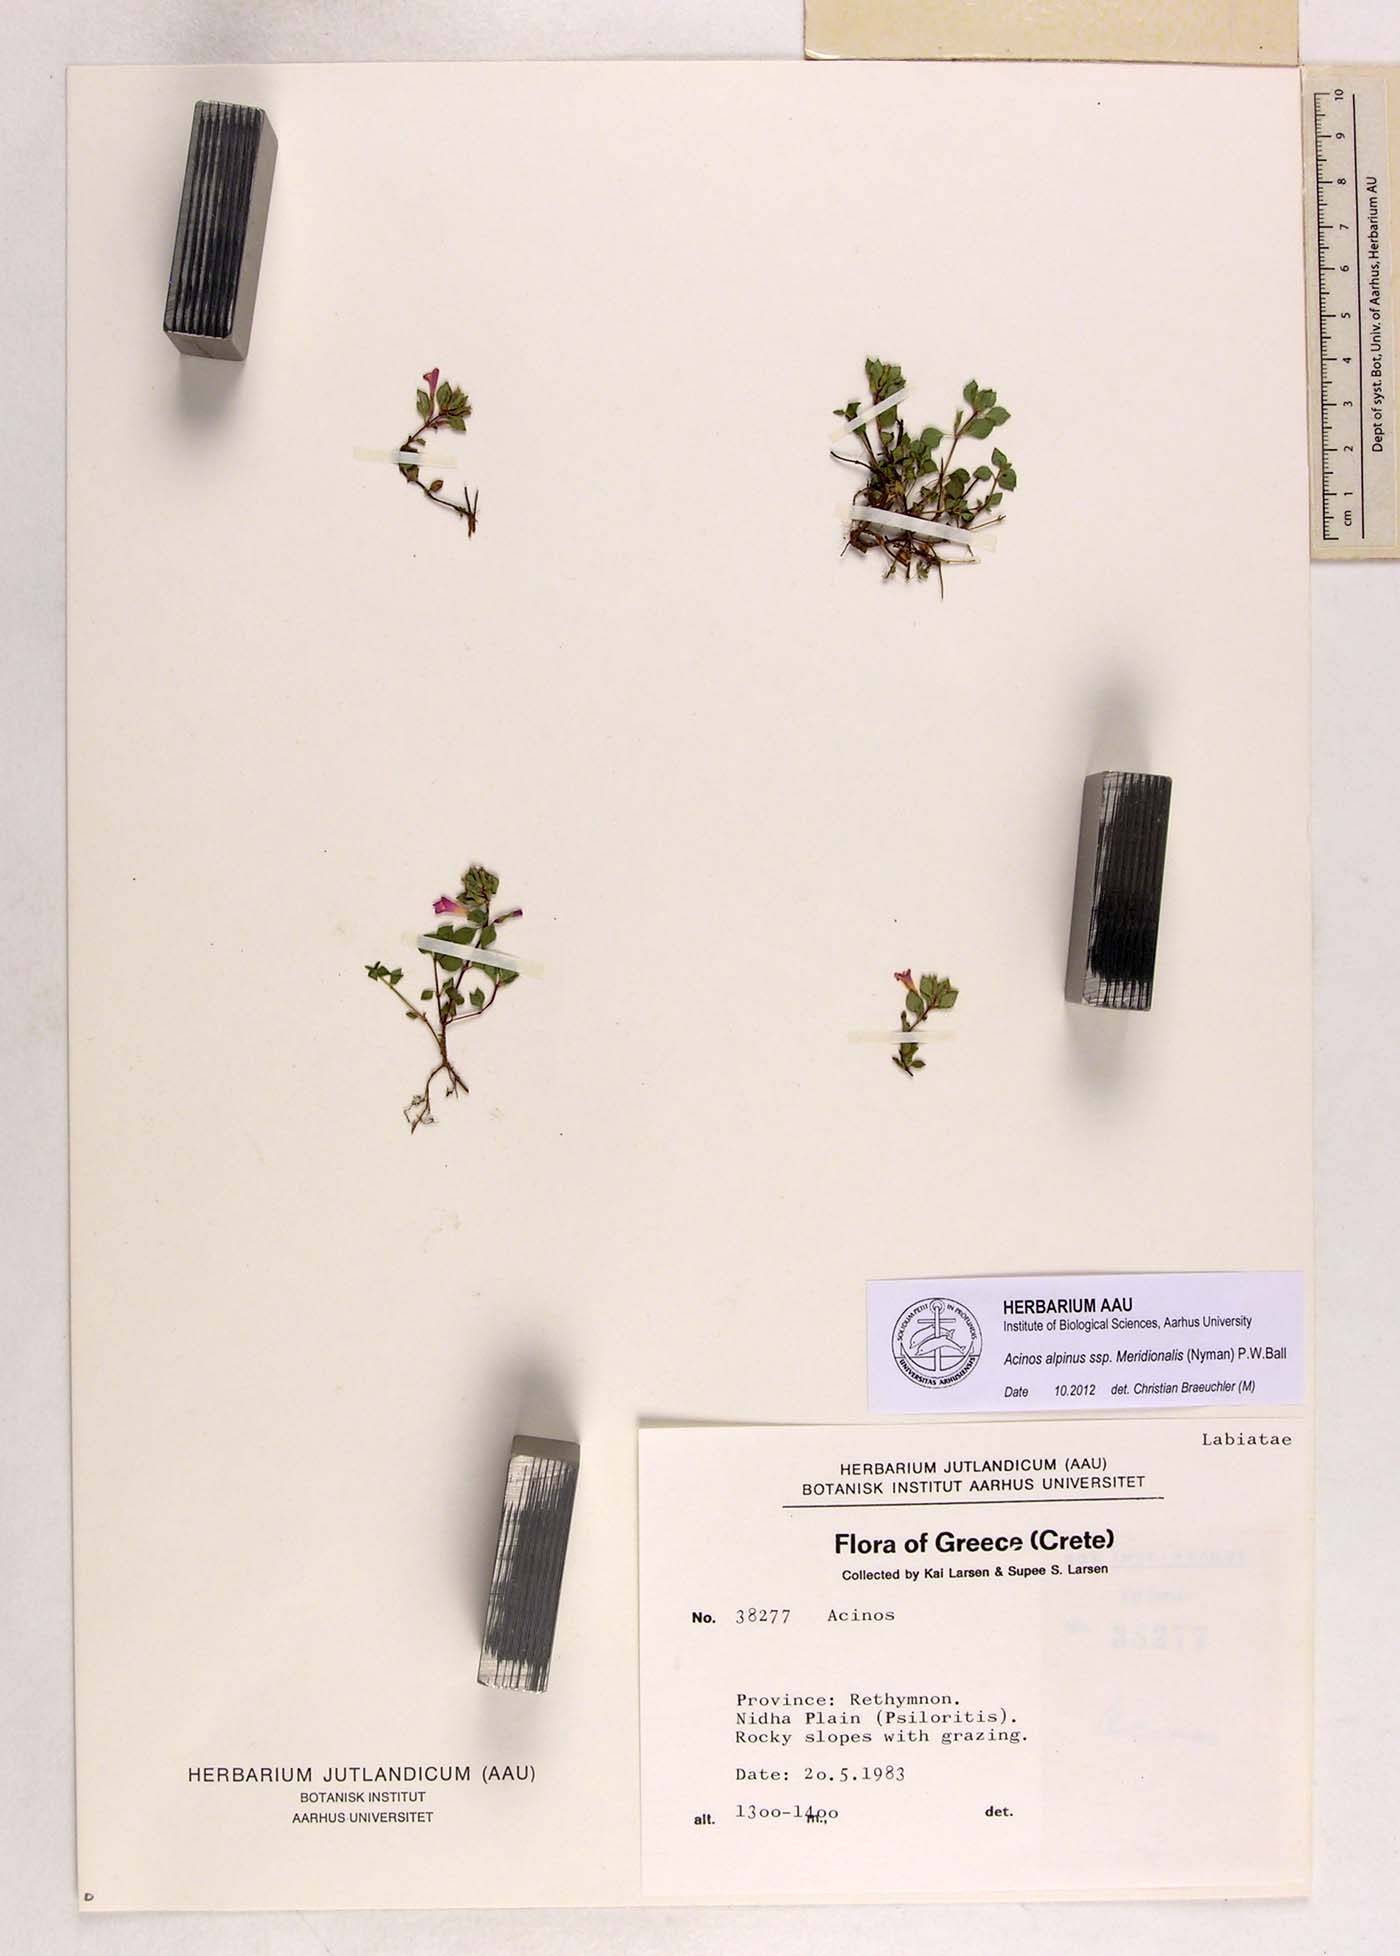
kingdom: Plantae
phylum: Tracheophyta
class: Magnoliopsida
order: Lamiales
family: Lamiaceae
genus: Clinopodium
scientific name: Clinopodium alpinum
